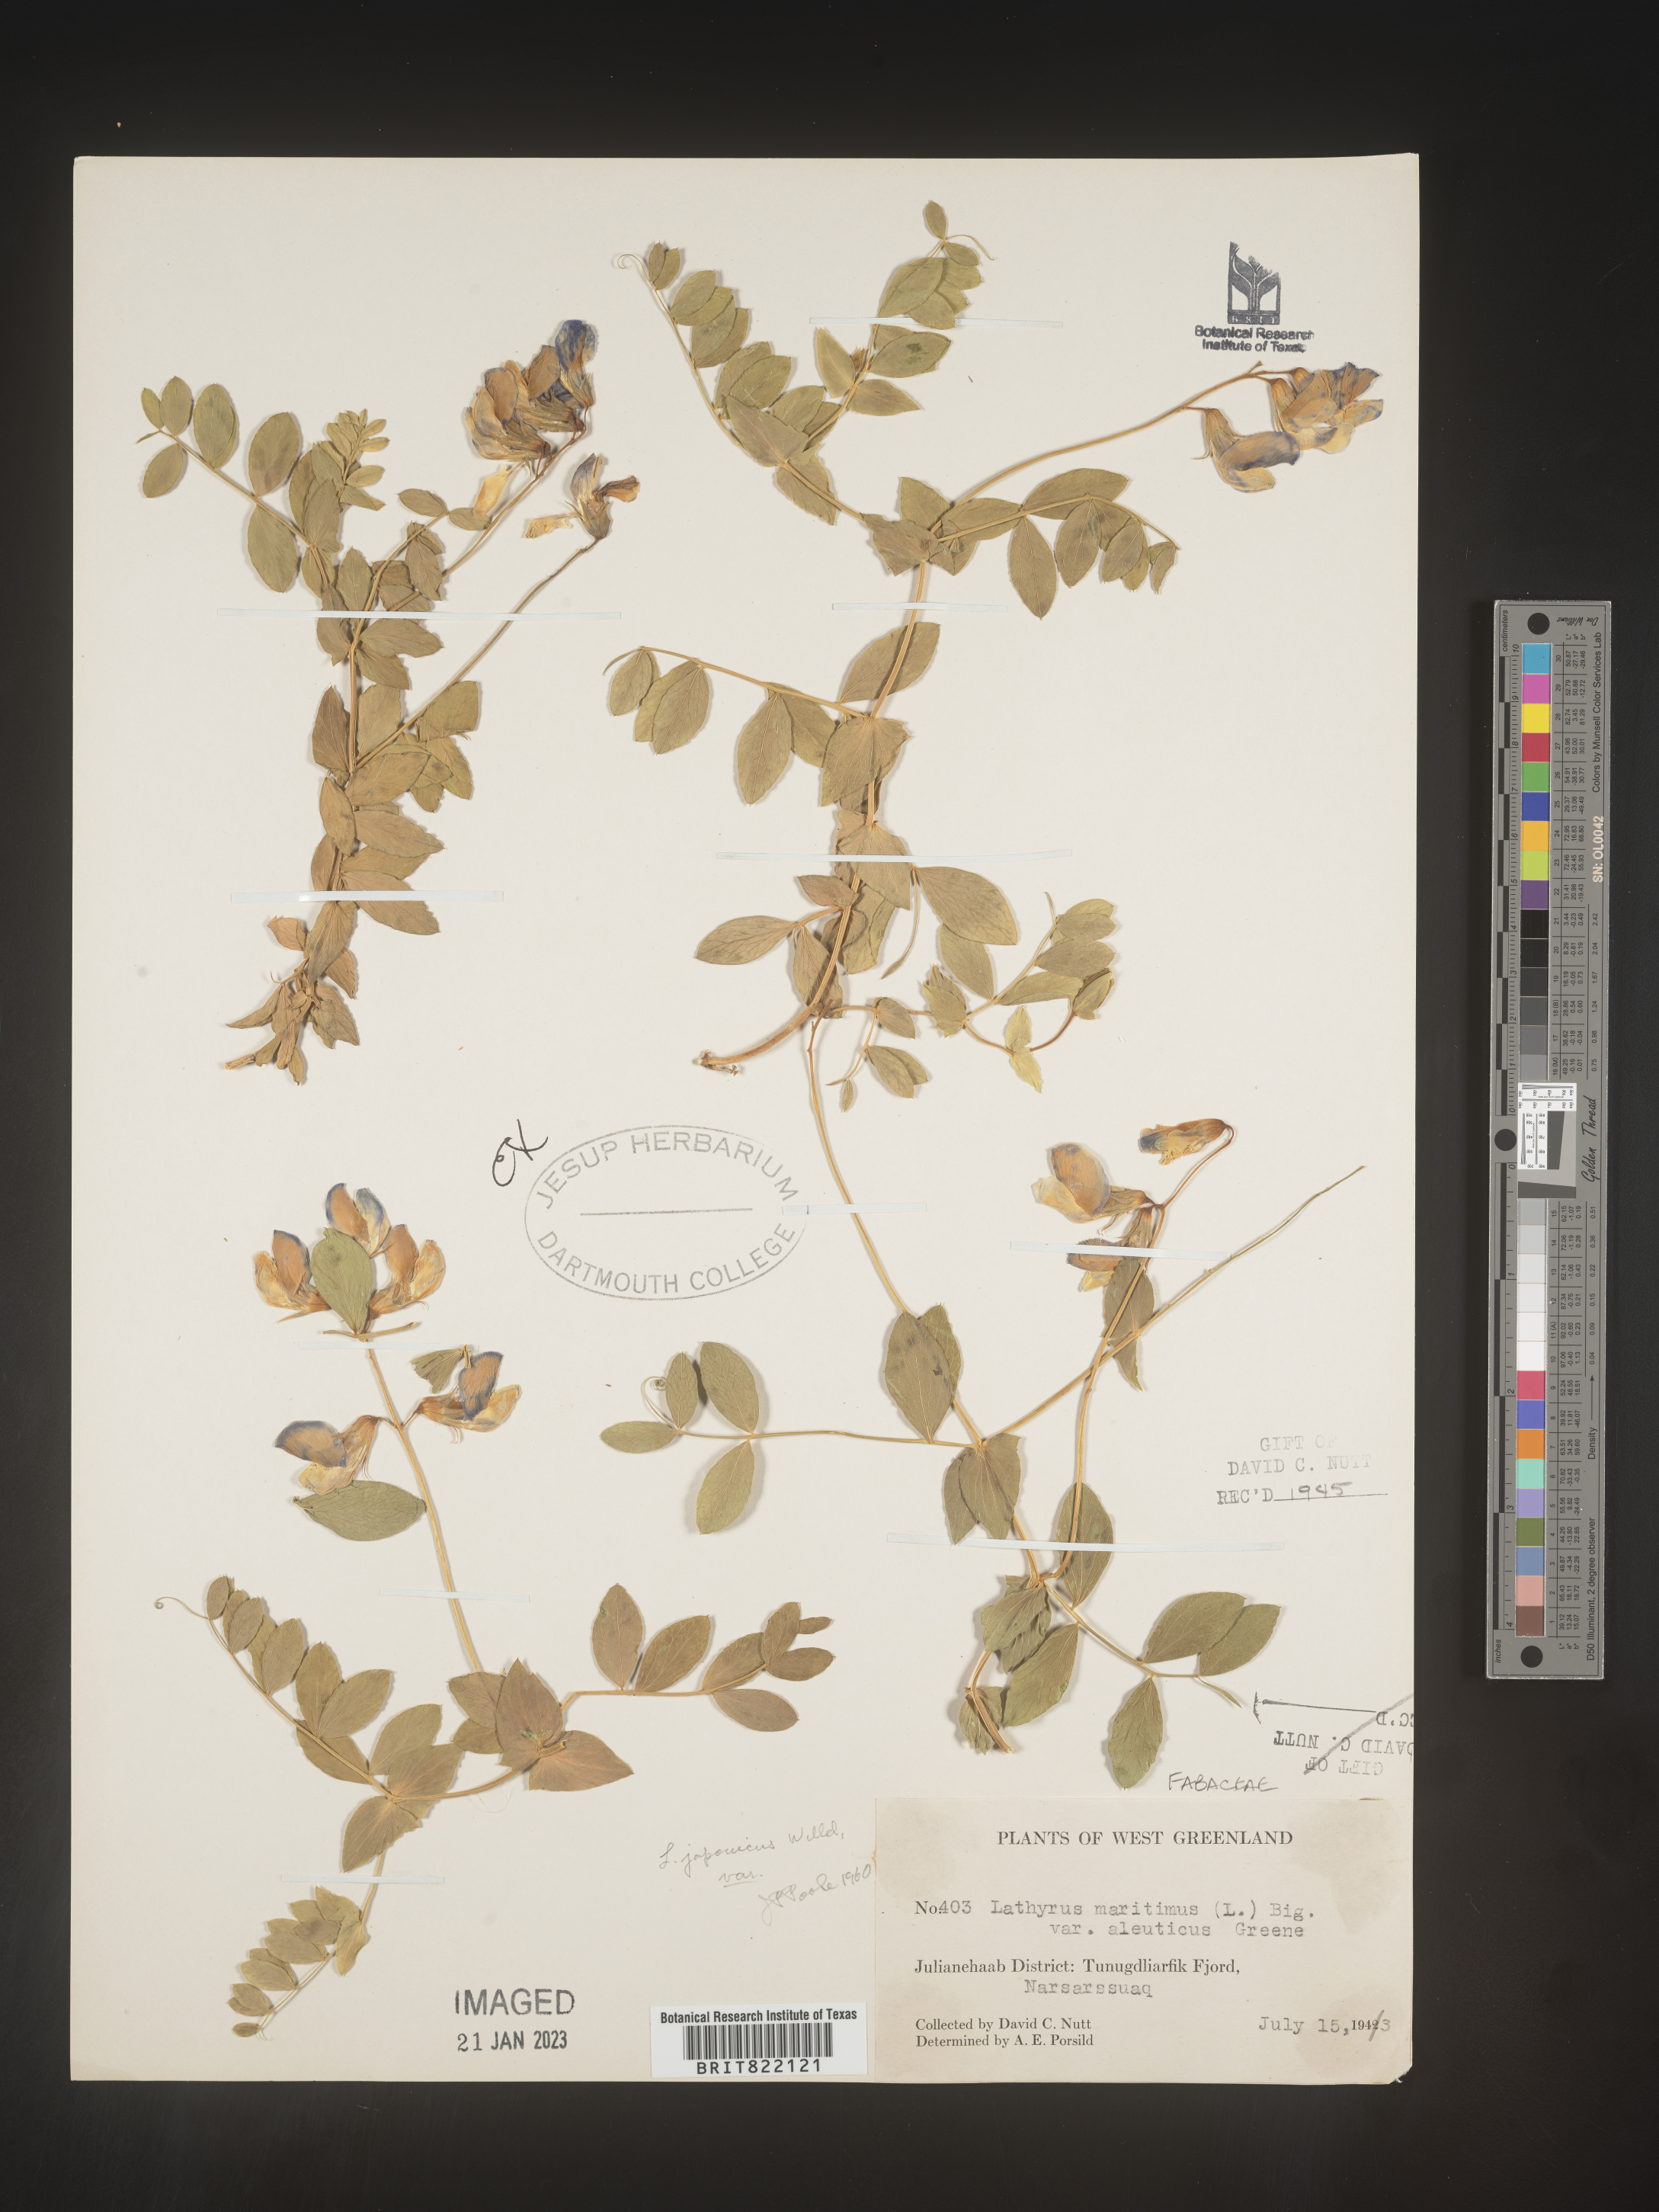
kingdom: Plantae
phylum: Tracheophyta
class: Magnoliopsida
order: Fabales
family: Fabaceae
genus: Lathyrus
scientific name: Lathyrus
